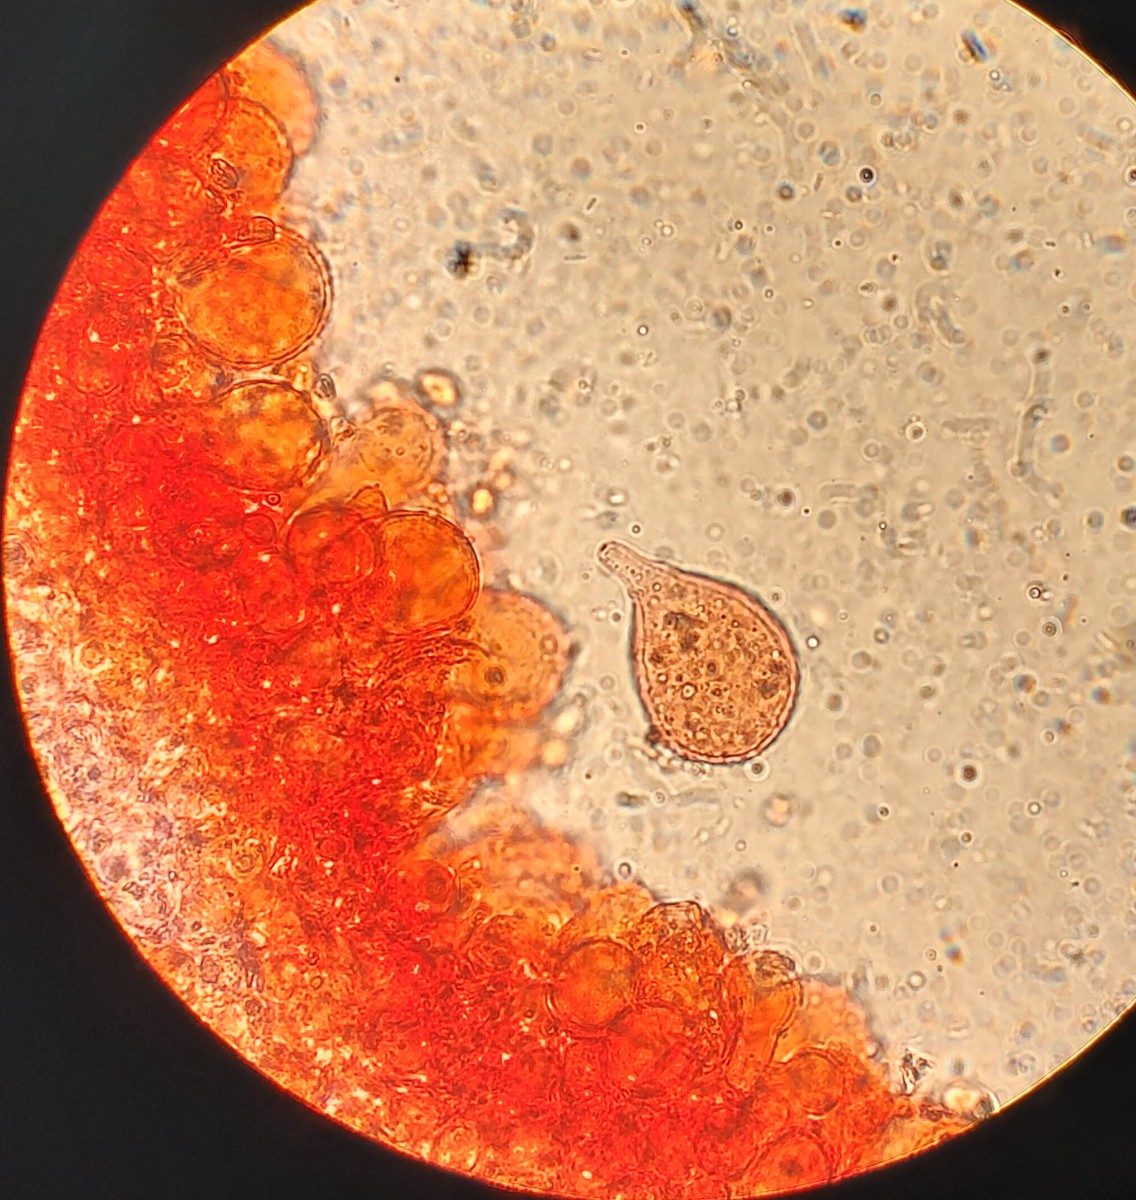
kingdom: Fungi
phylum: Basidiomycota
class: Agaricomycetes
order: Agaricales
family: Mycenaceae
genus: Mycena
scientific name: Mycena metata
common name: rødlig huesvamp
